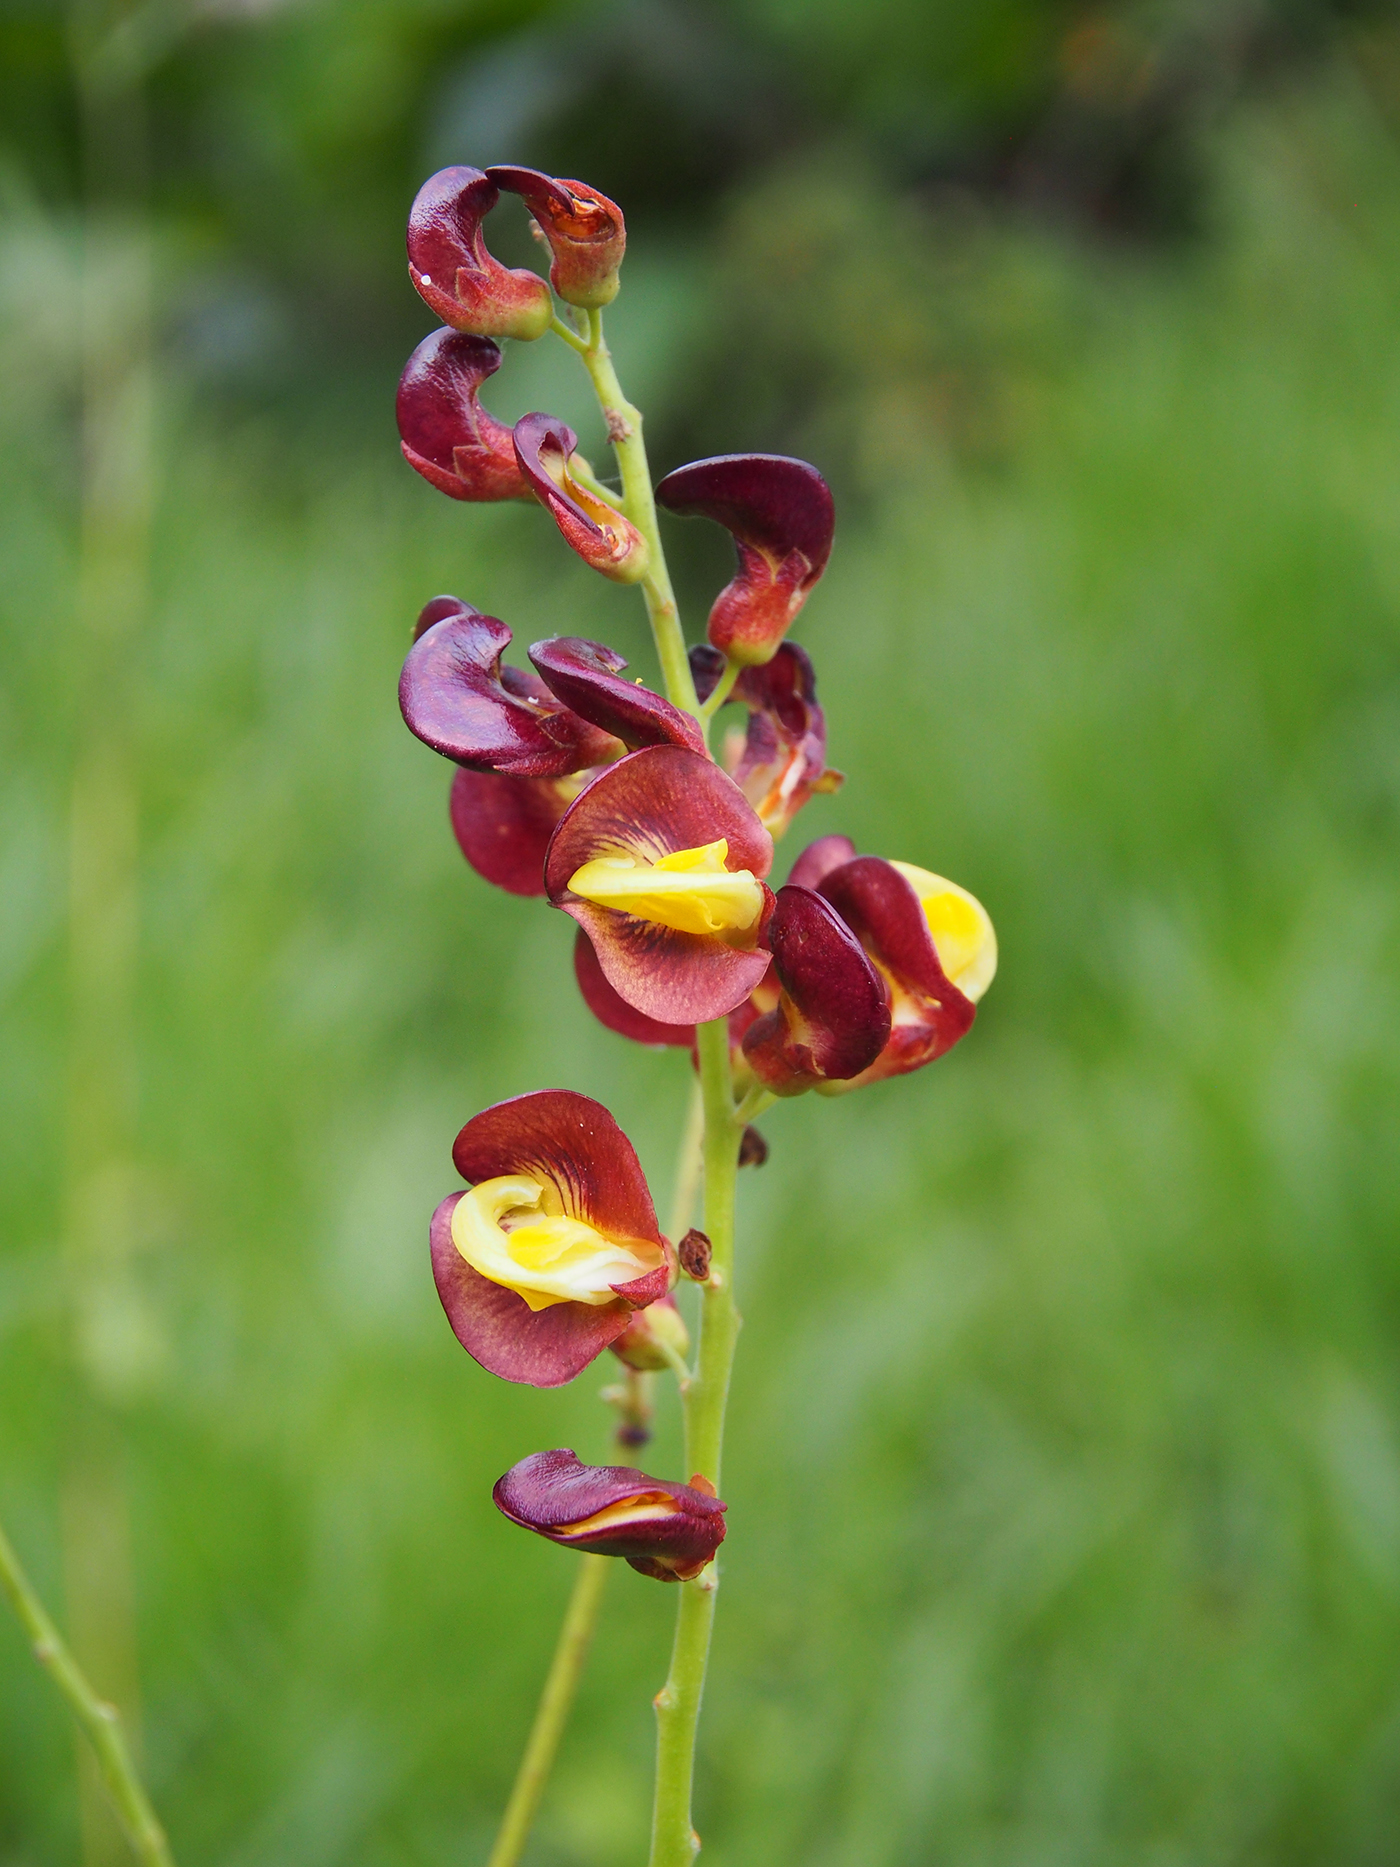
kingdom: Plantae
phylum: Tracheophyta
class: Magnoliopsida
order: Fabales
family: Fabaceae
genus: Dunbaria
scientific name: Dunbaria bella
